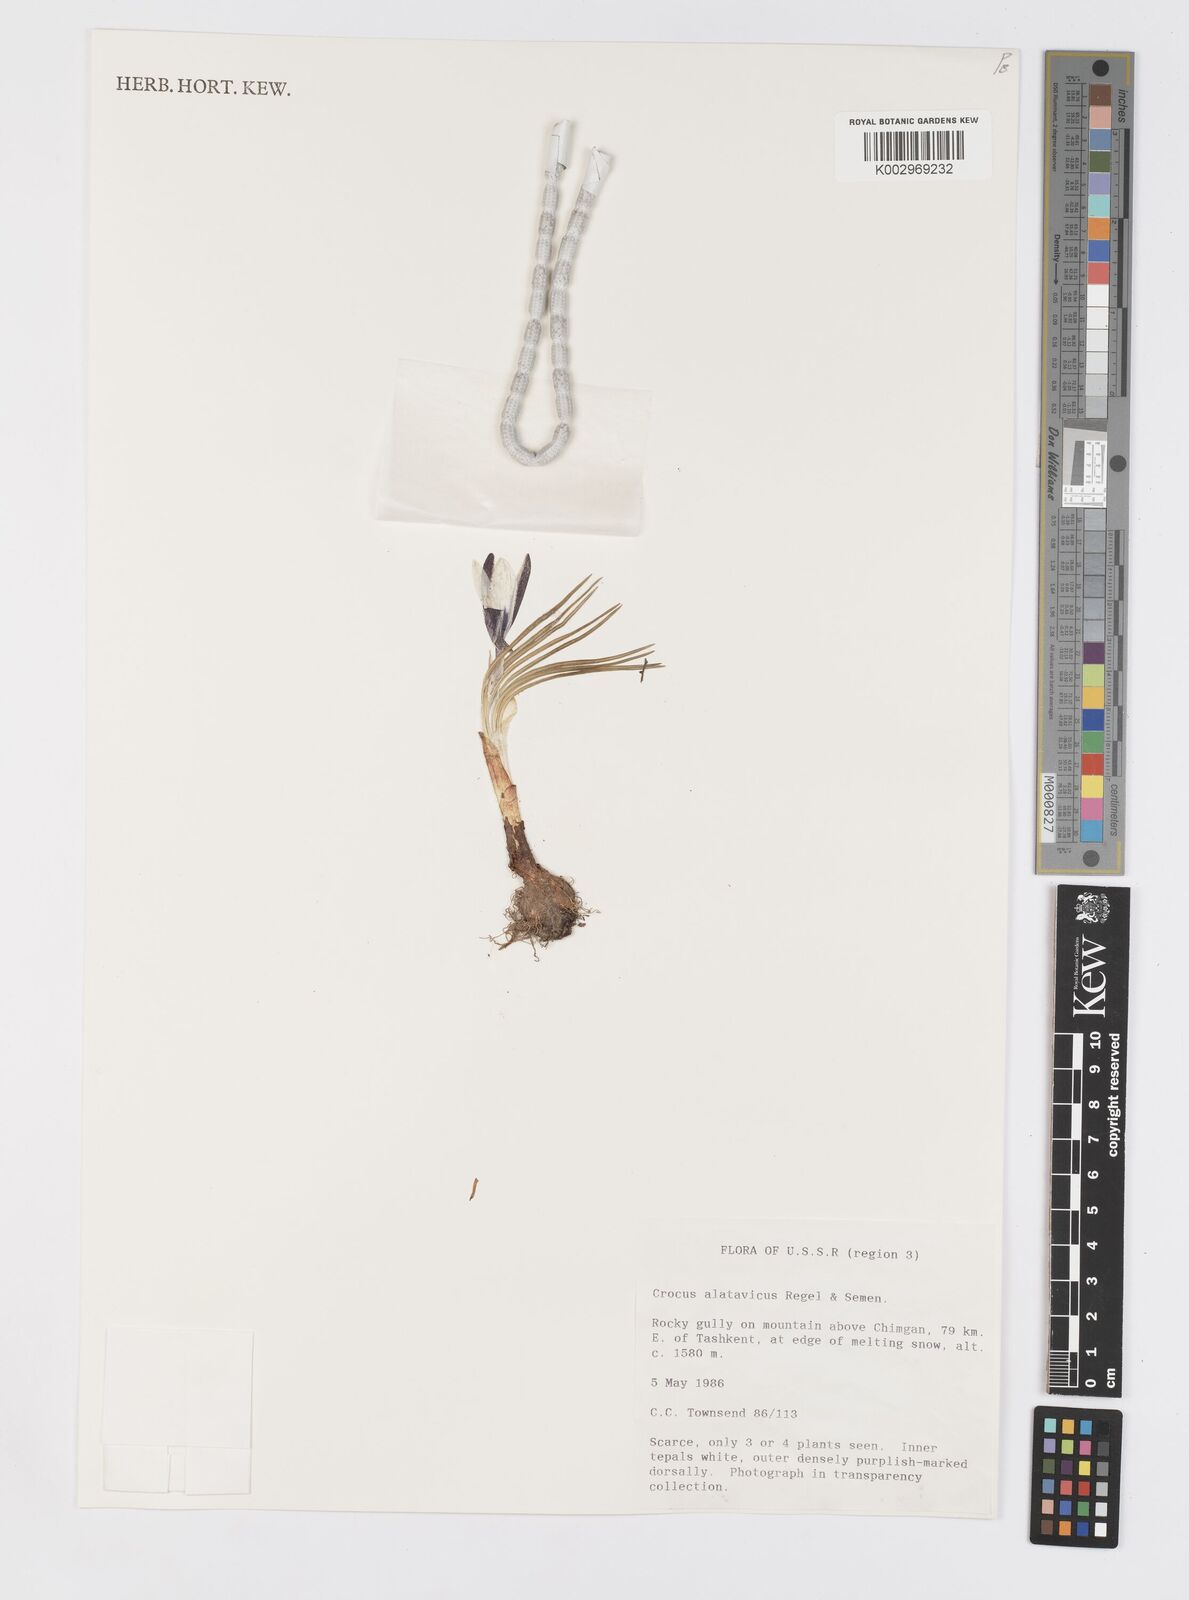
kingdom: Plantae
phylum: Tracheophyta
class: Liliopsida
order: Asparagales
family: Iridaceae
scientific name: Iridaceae
